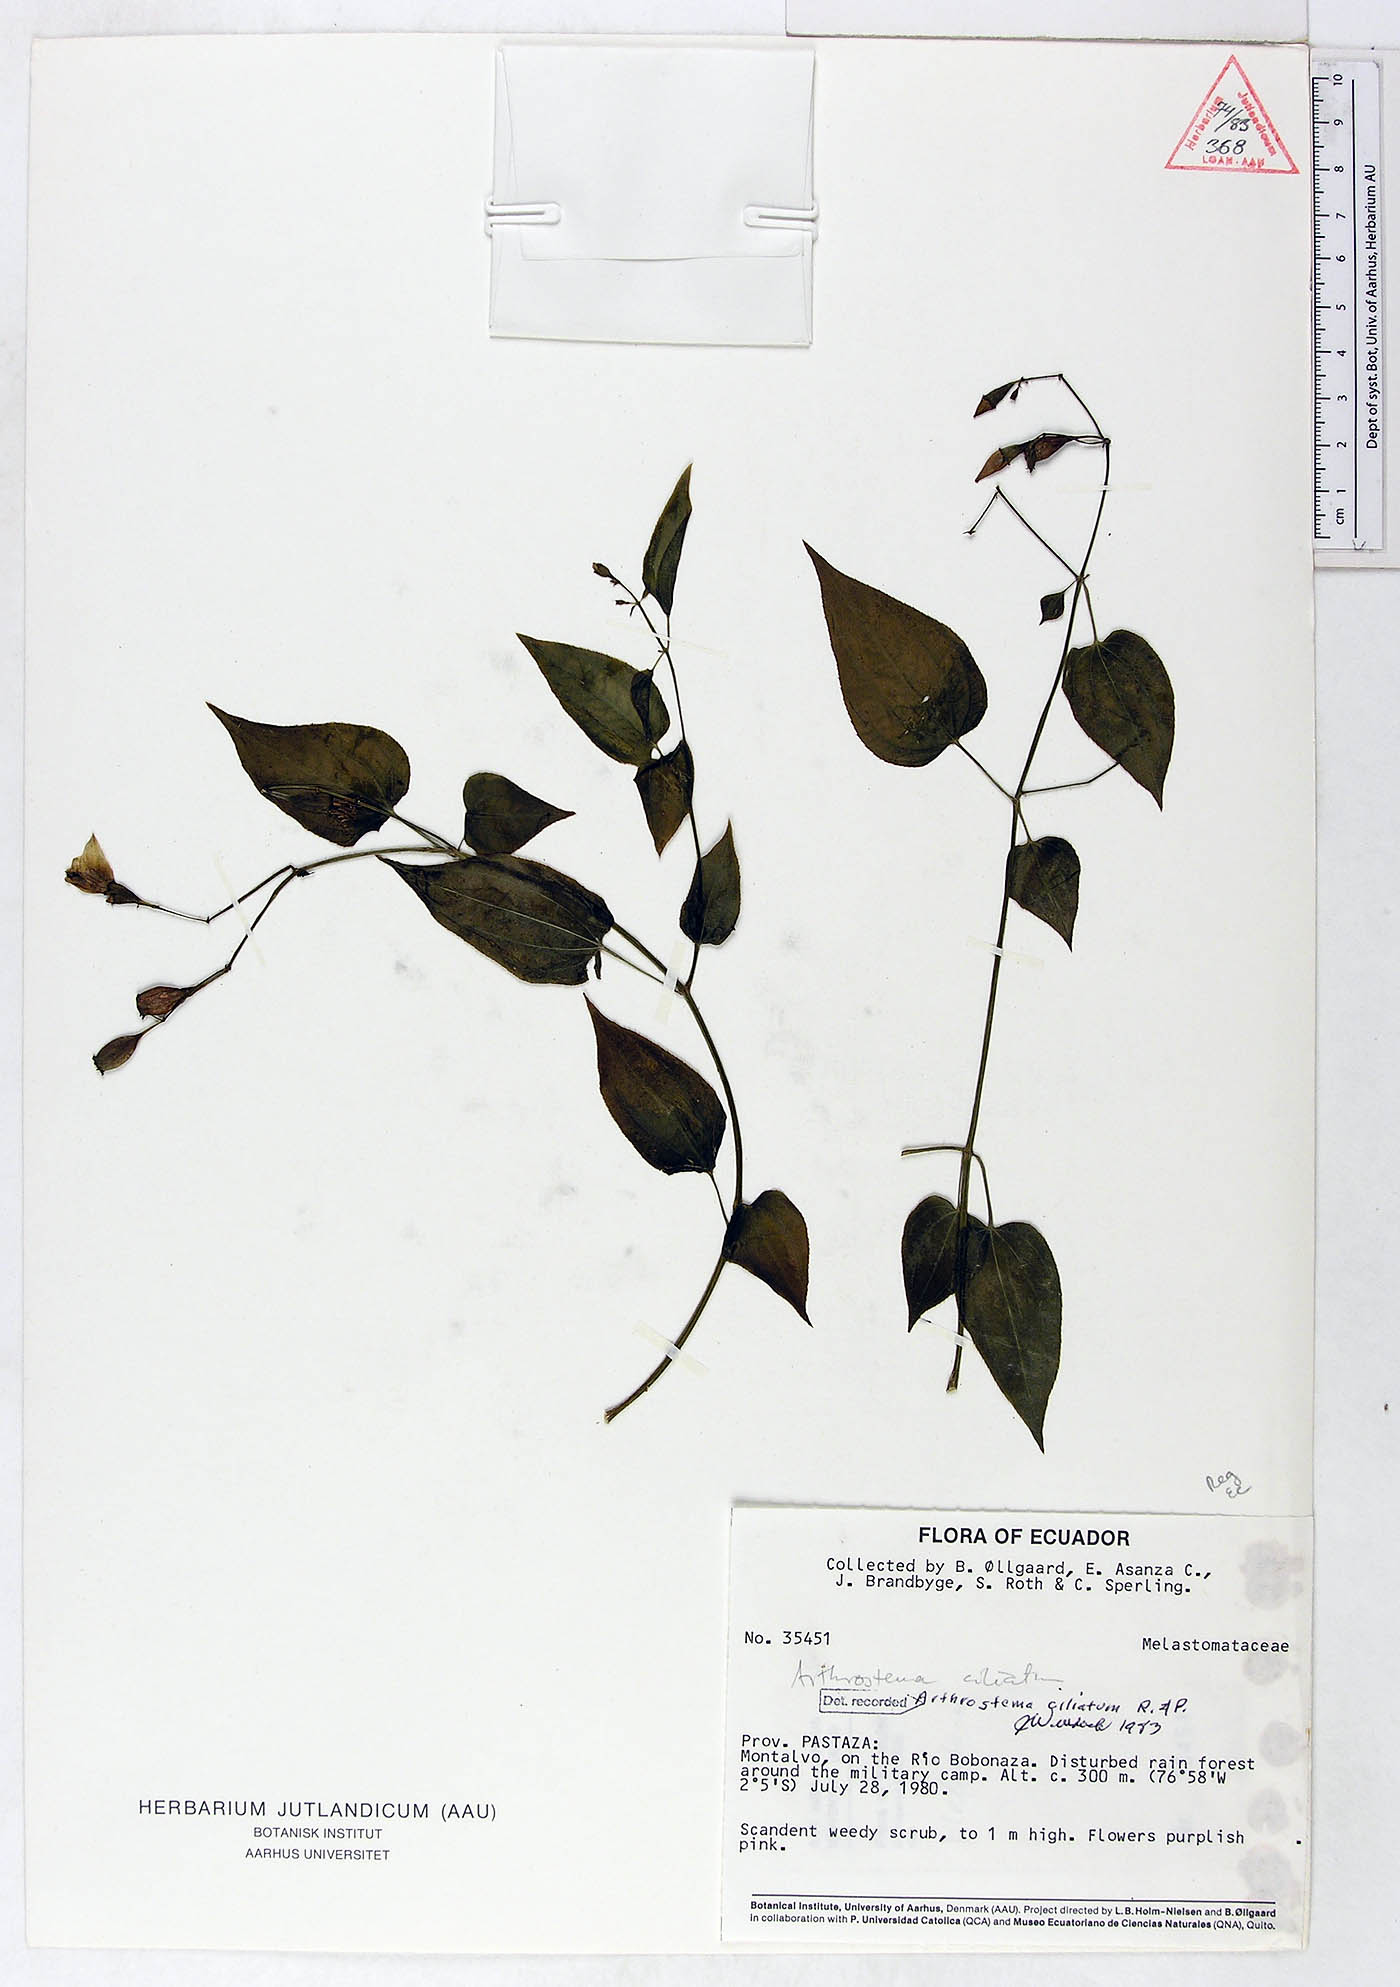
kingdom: Plantae
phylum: Tracheophyta
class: Magnoliopsida
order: Myrtales
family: Melastomataceae
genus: Arthrostemma
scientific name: Arthrostemma ciliatum
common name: Everblooming eavender
